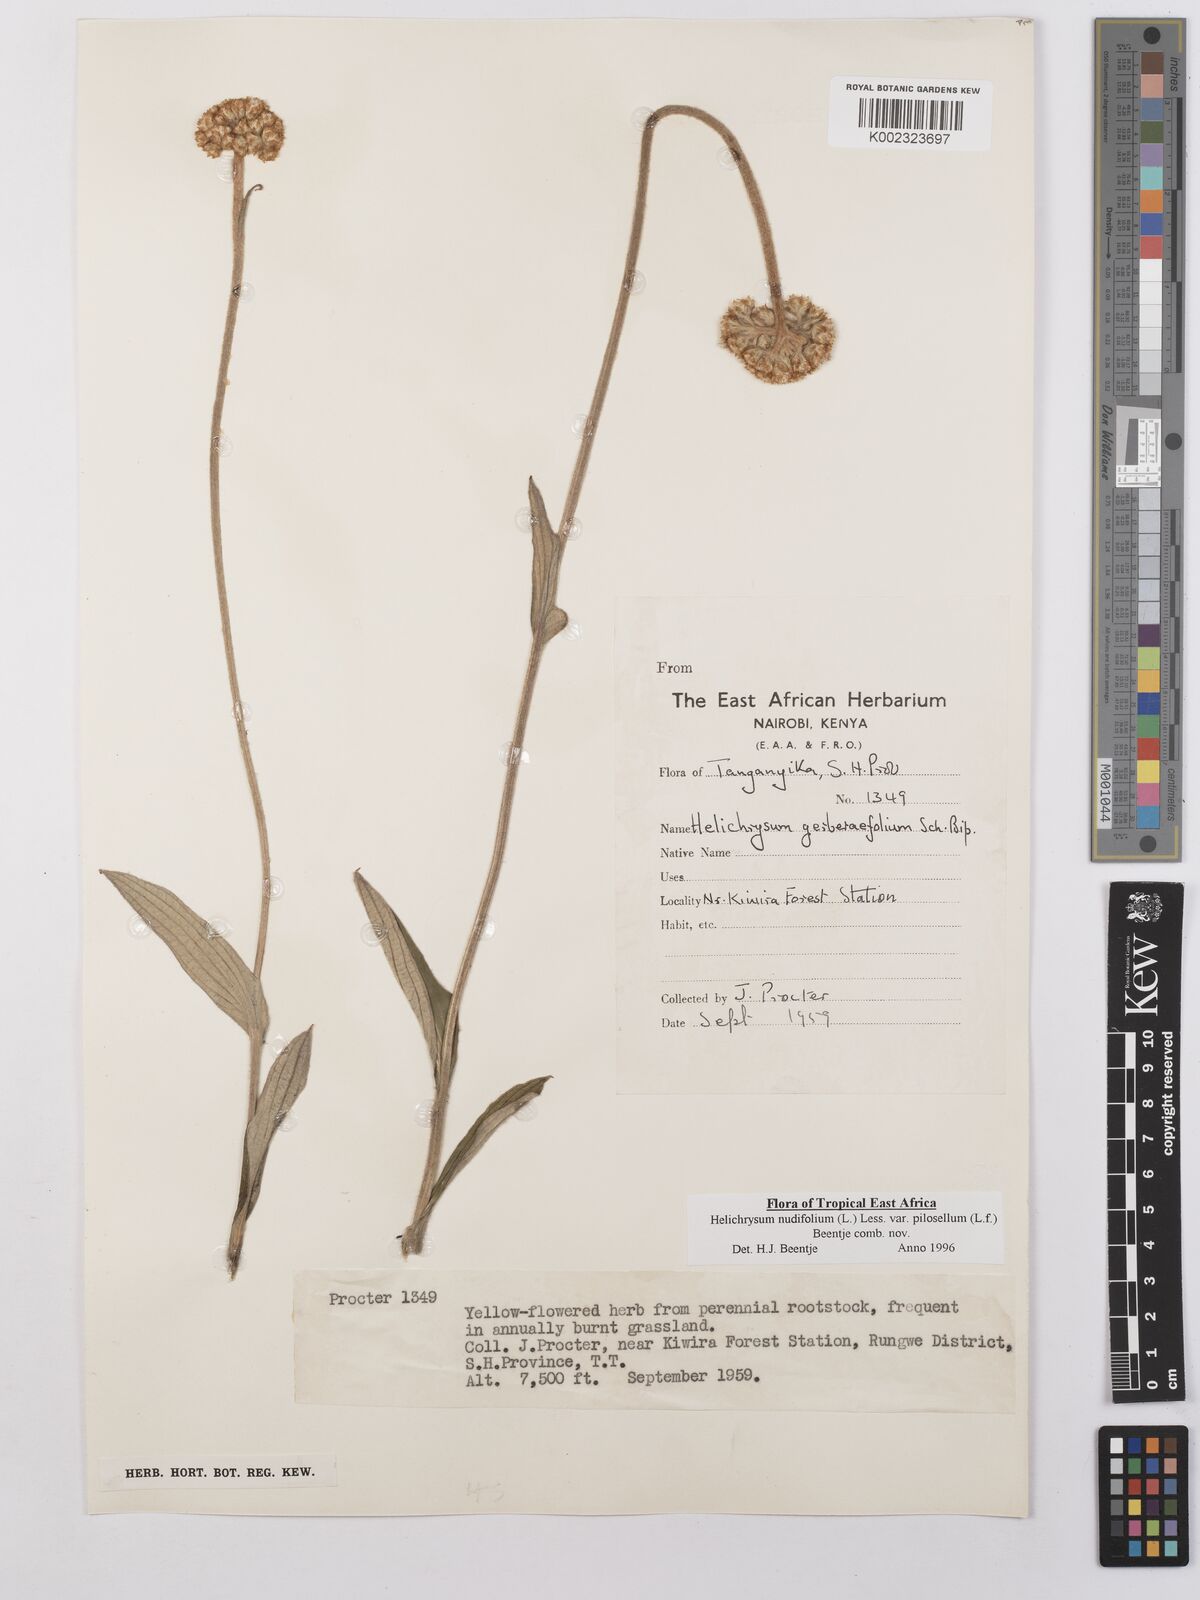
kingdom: Plantae
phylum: Tracheophyta
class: Magnoliopsida
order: Asterales
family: Asteraceae
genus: Helichrysum
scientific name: Helichrysum nudifolium
